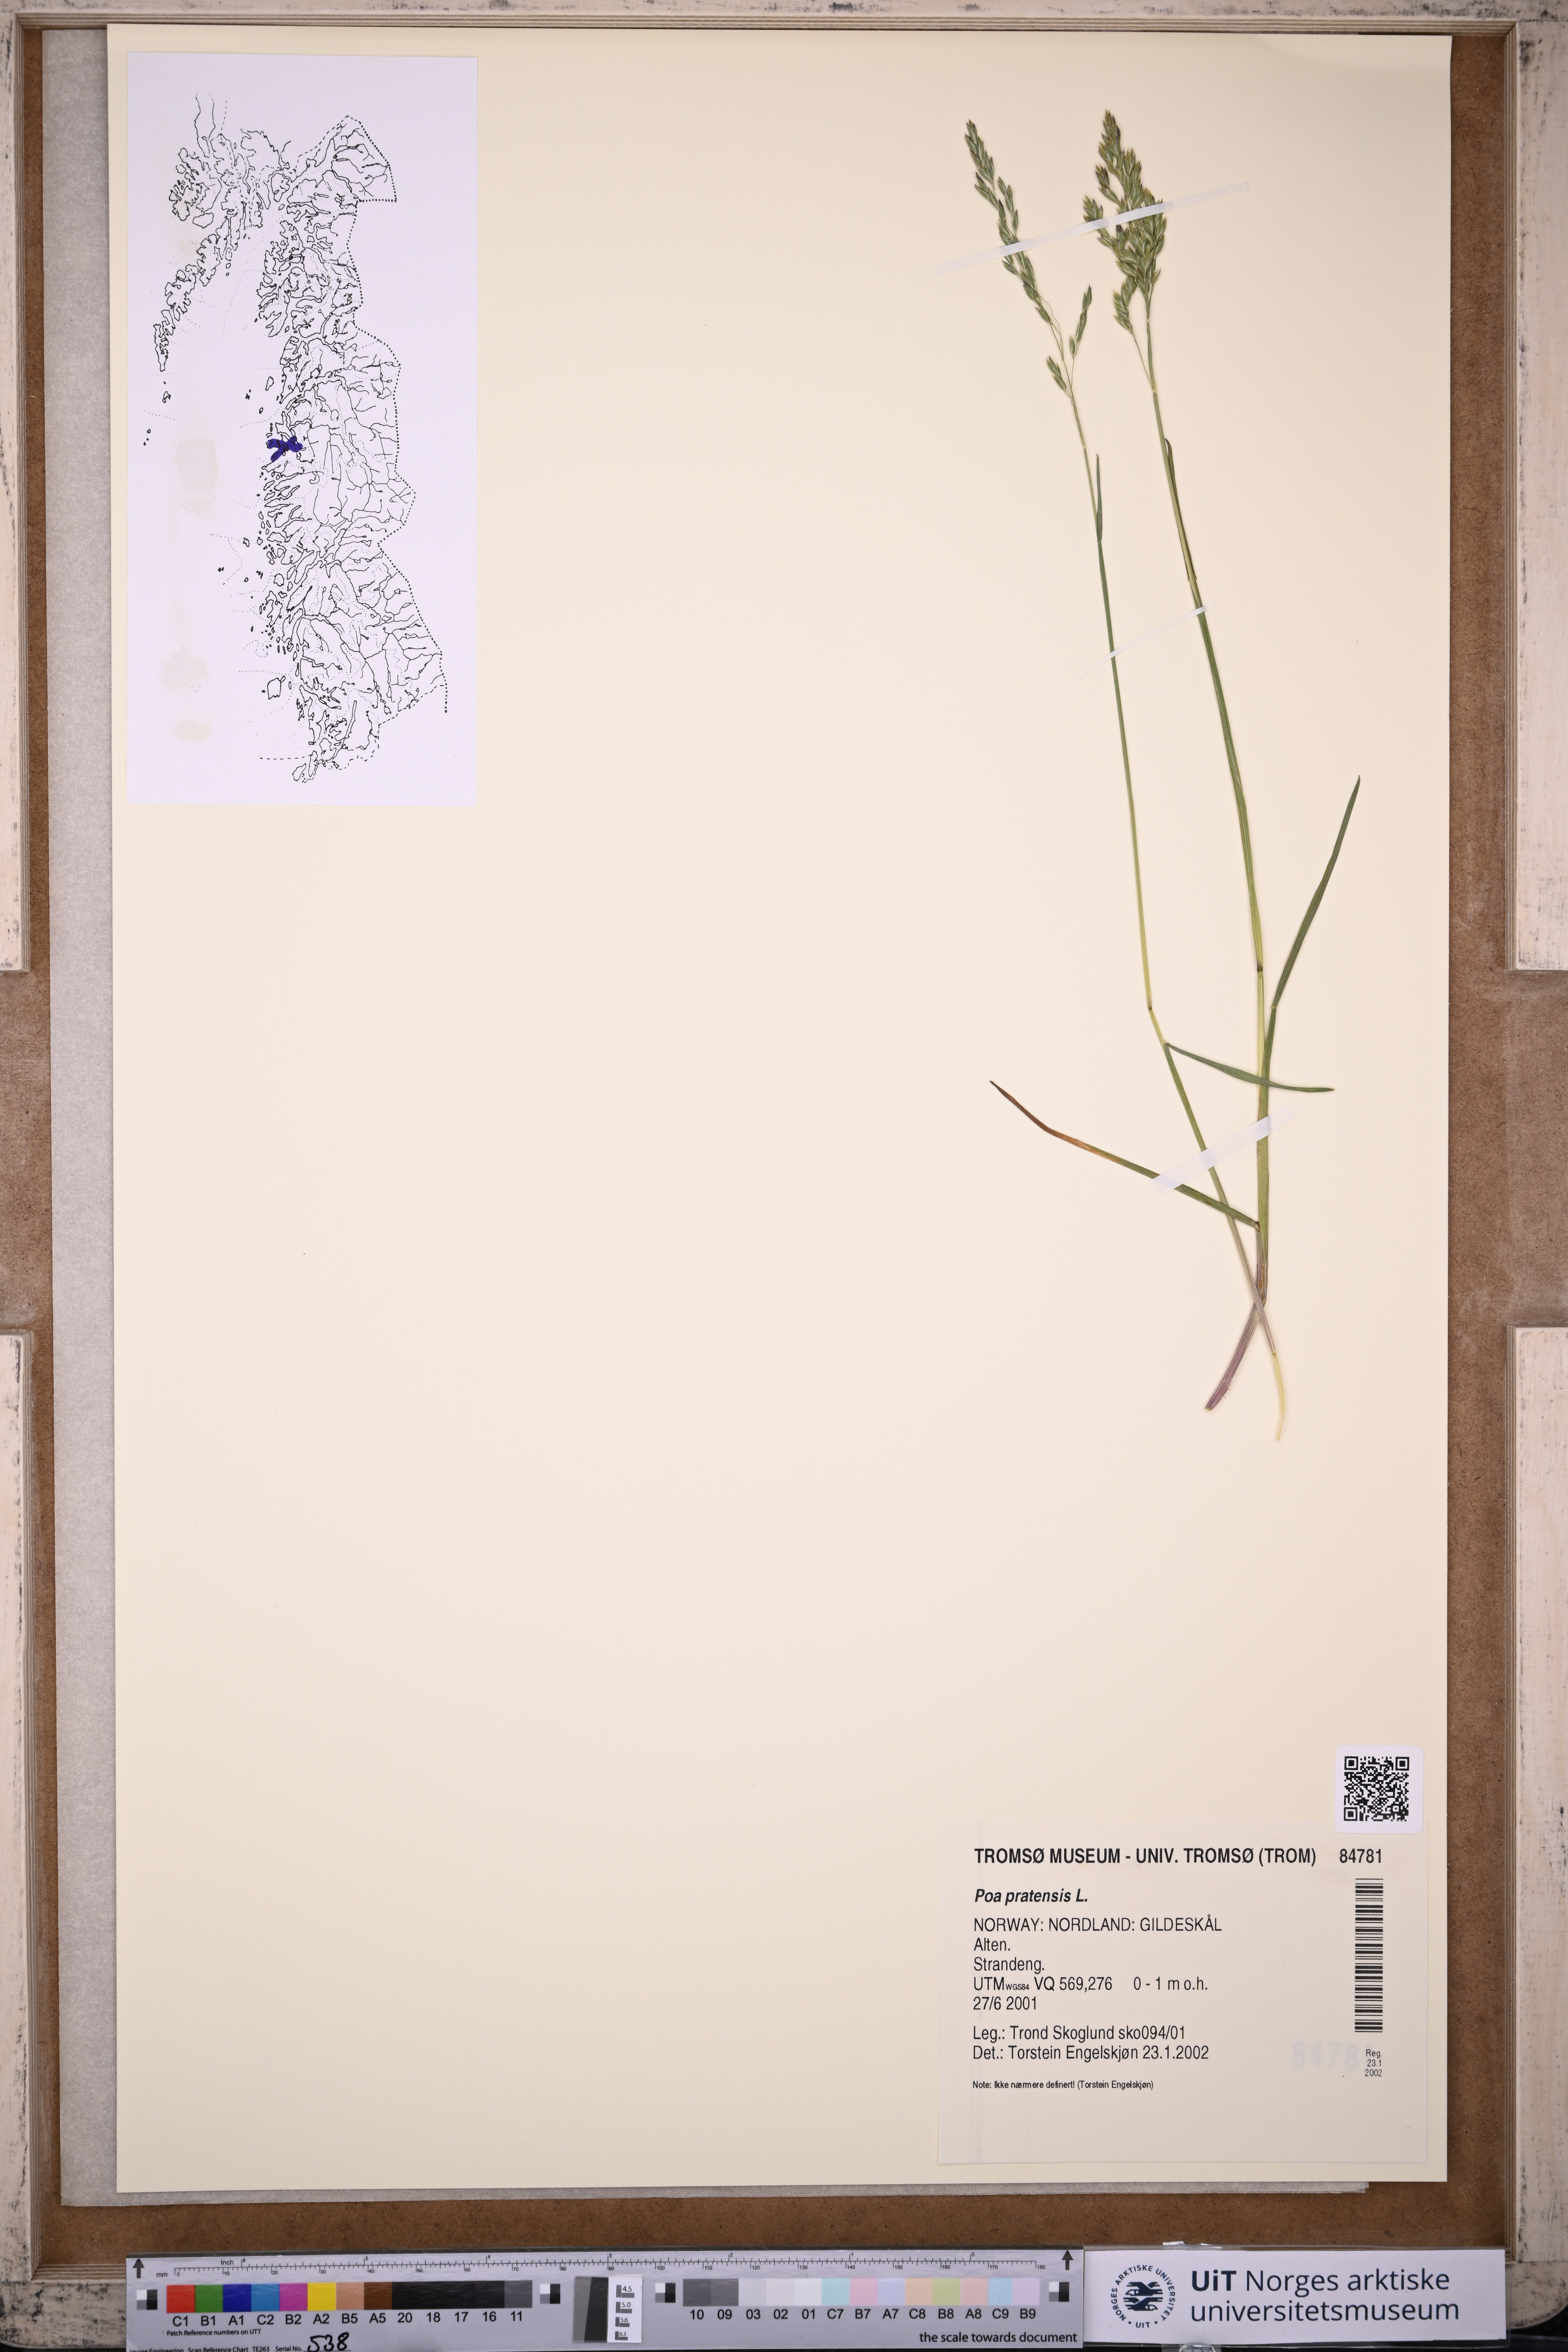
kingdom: Plantae
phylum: Tracheophyta
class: Liliopsida
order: Poales
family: Poaceae
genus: Poa
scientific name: Poa pratensis
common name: Kentucky bluegrass
